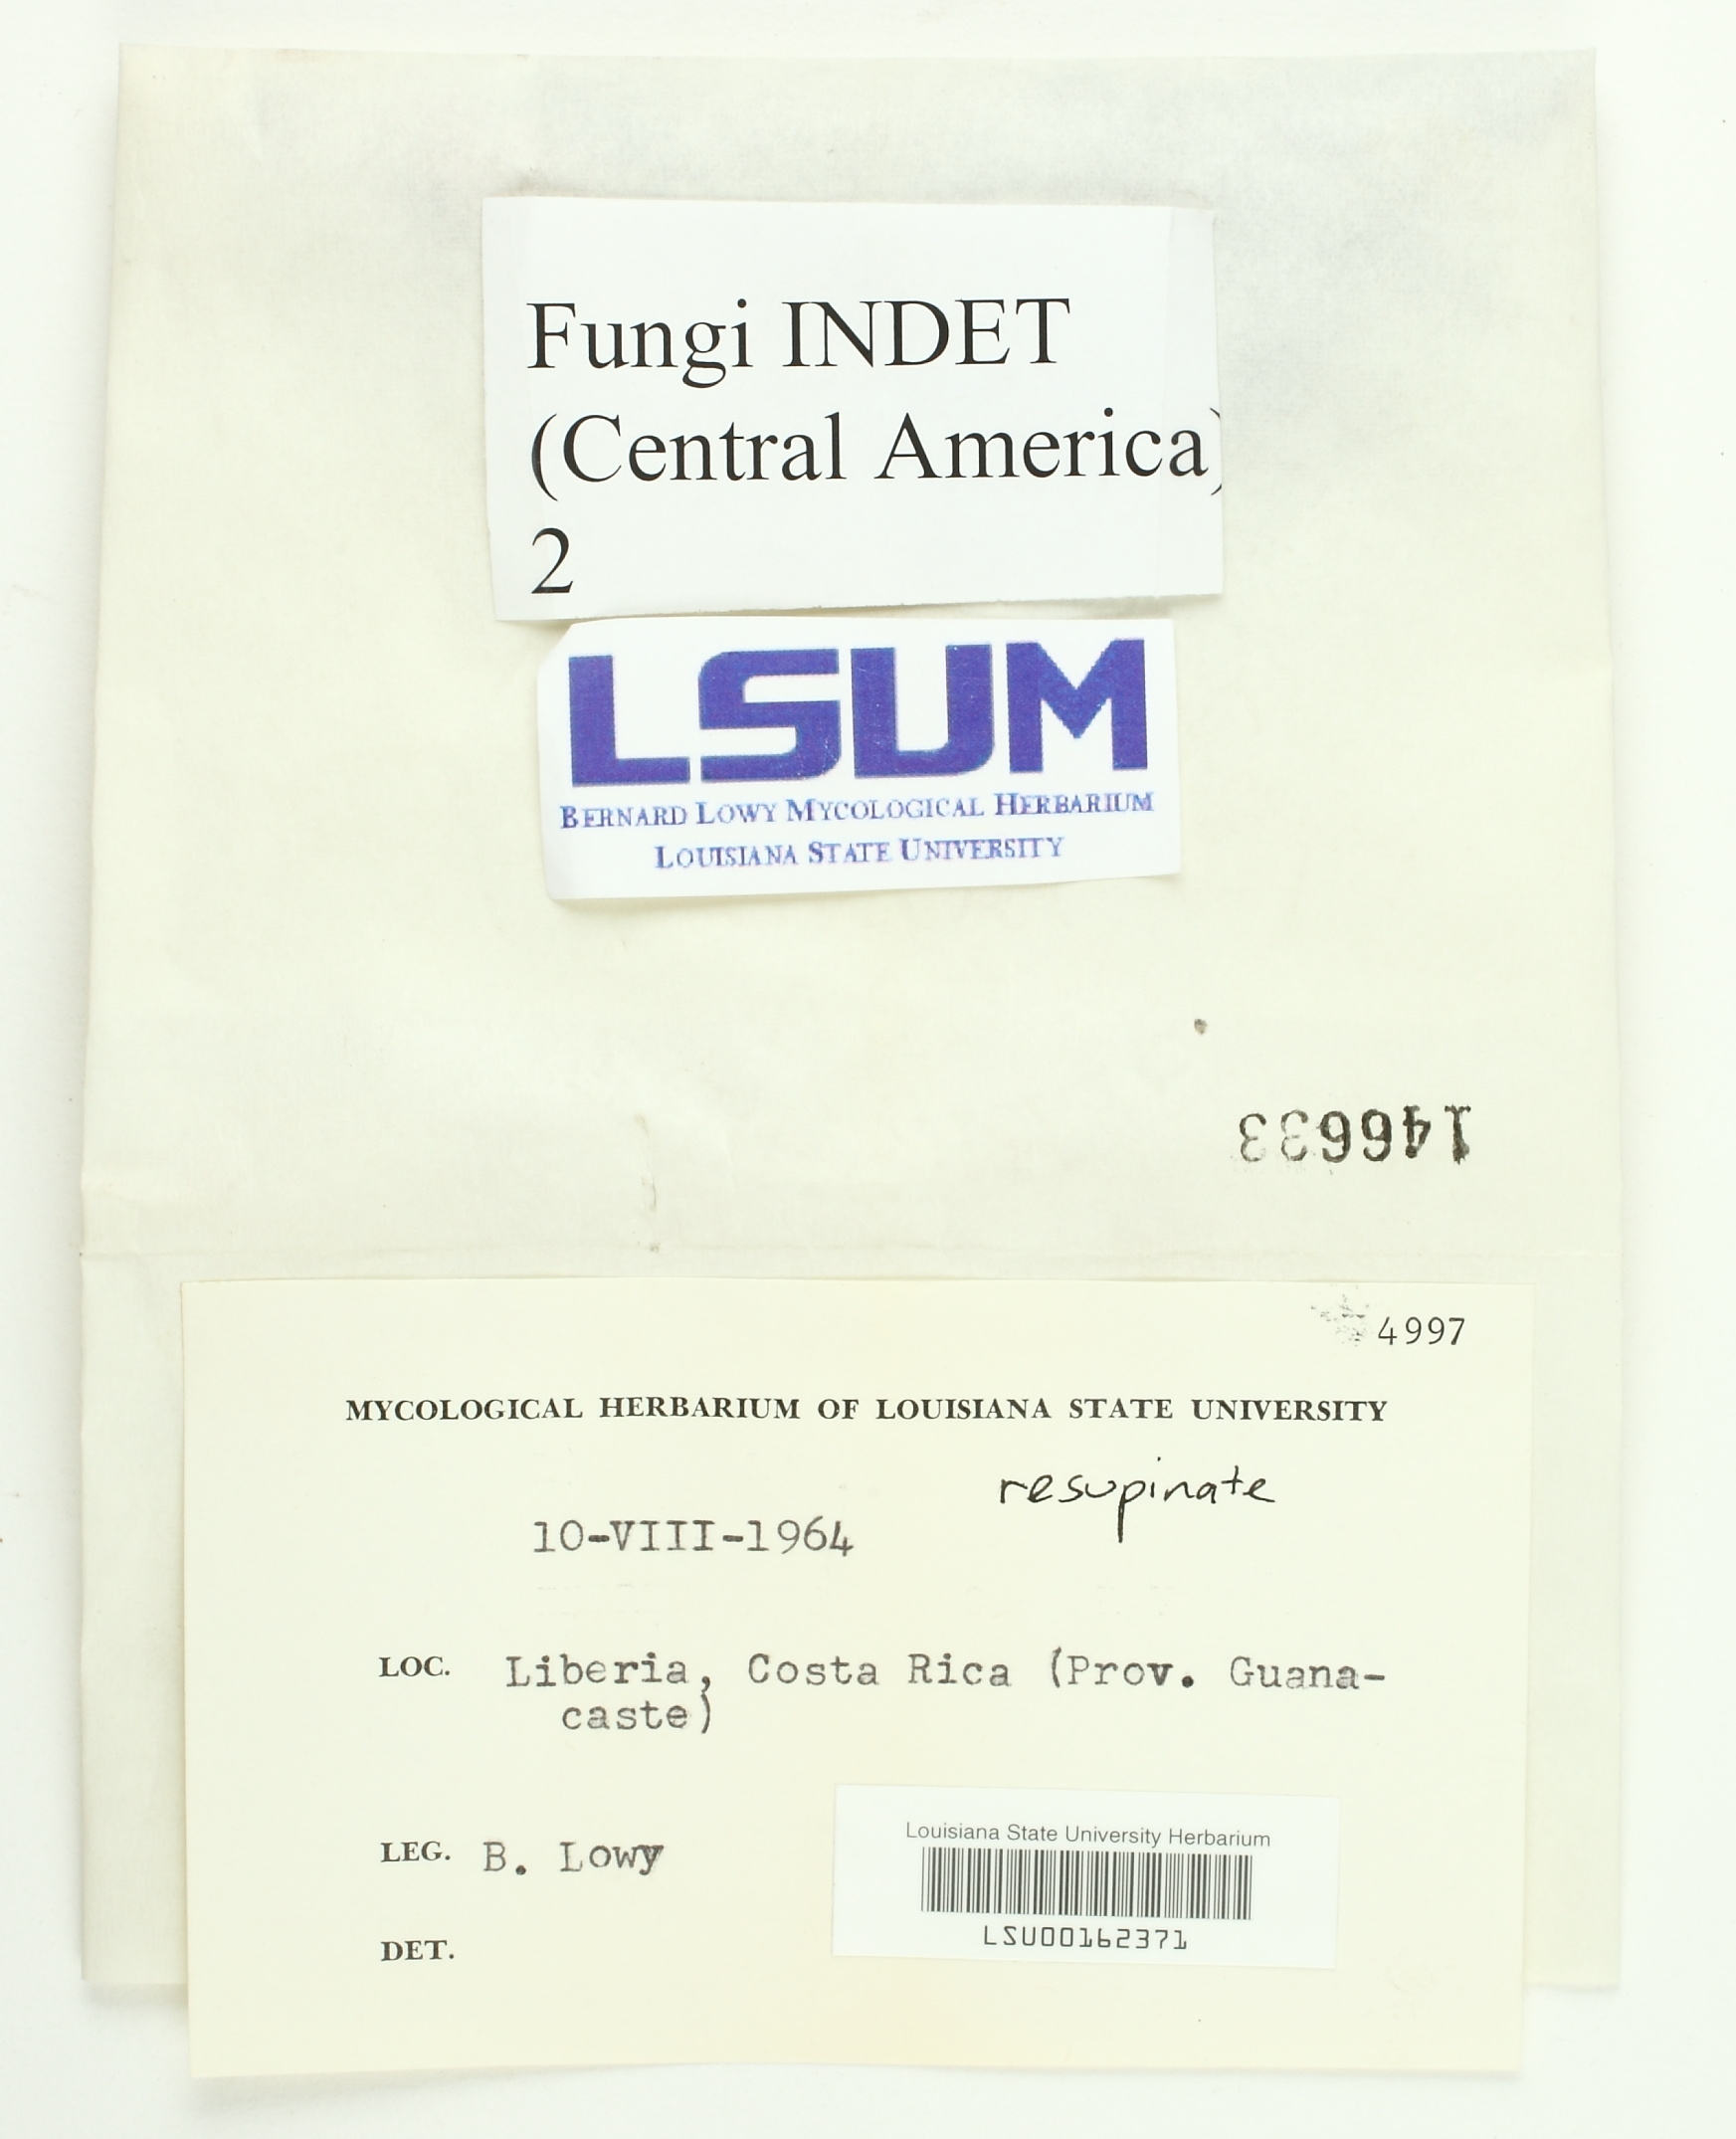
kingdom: Fungi
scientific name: Fungi
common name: Fungi
